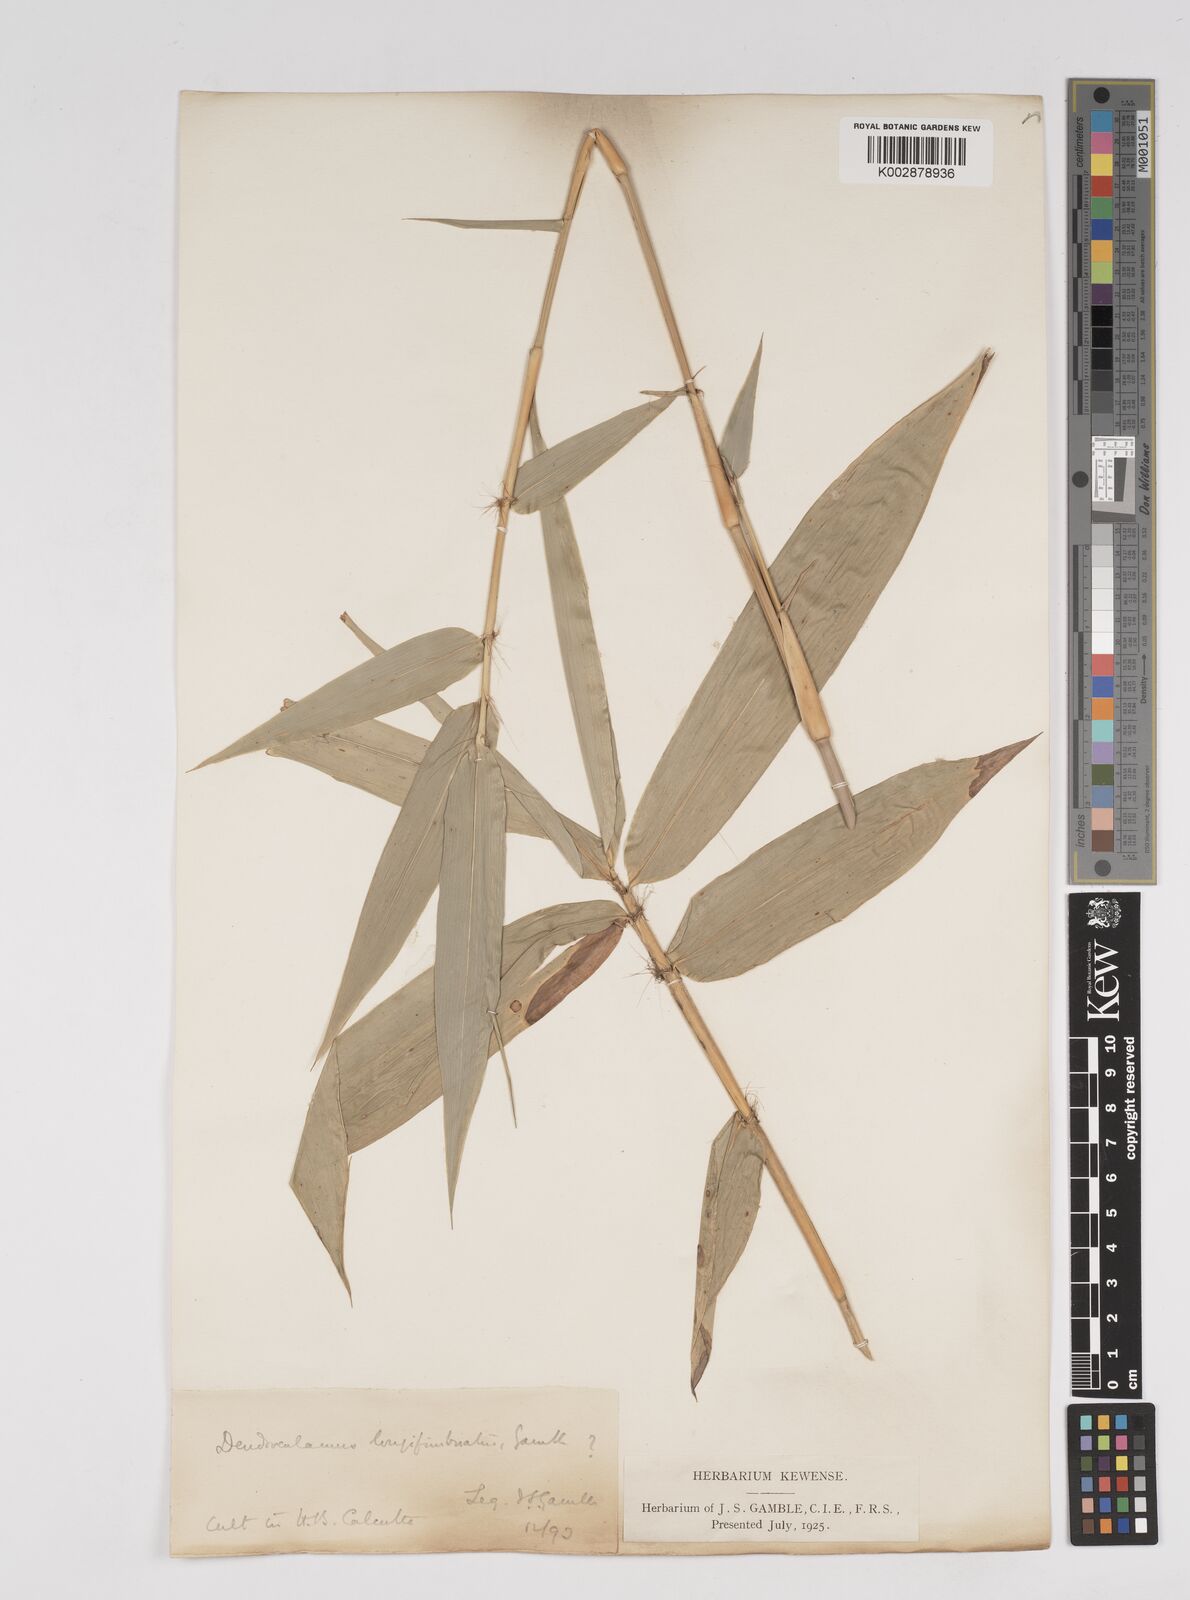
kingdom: Plantae
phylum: Tracheophyta
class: Liliopsida
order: Poales
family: Poaceae
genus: Dendrocalamus
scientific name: Dendrocalamus membranaceus
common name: White bamboo
